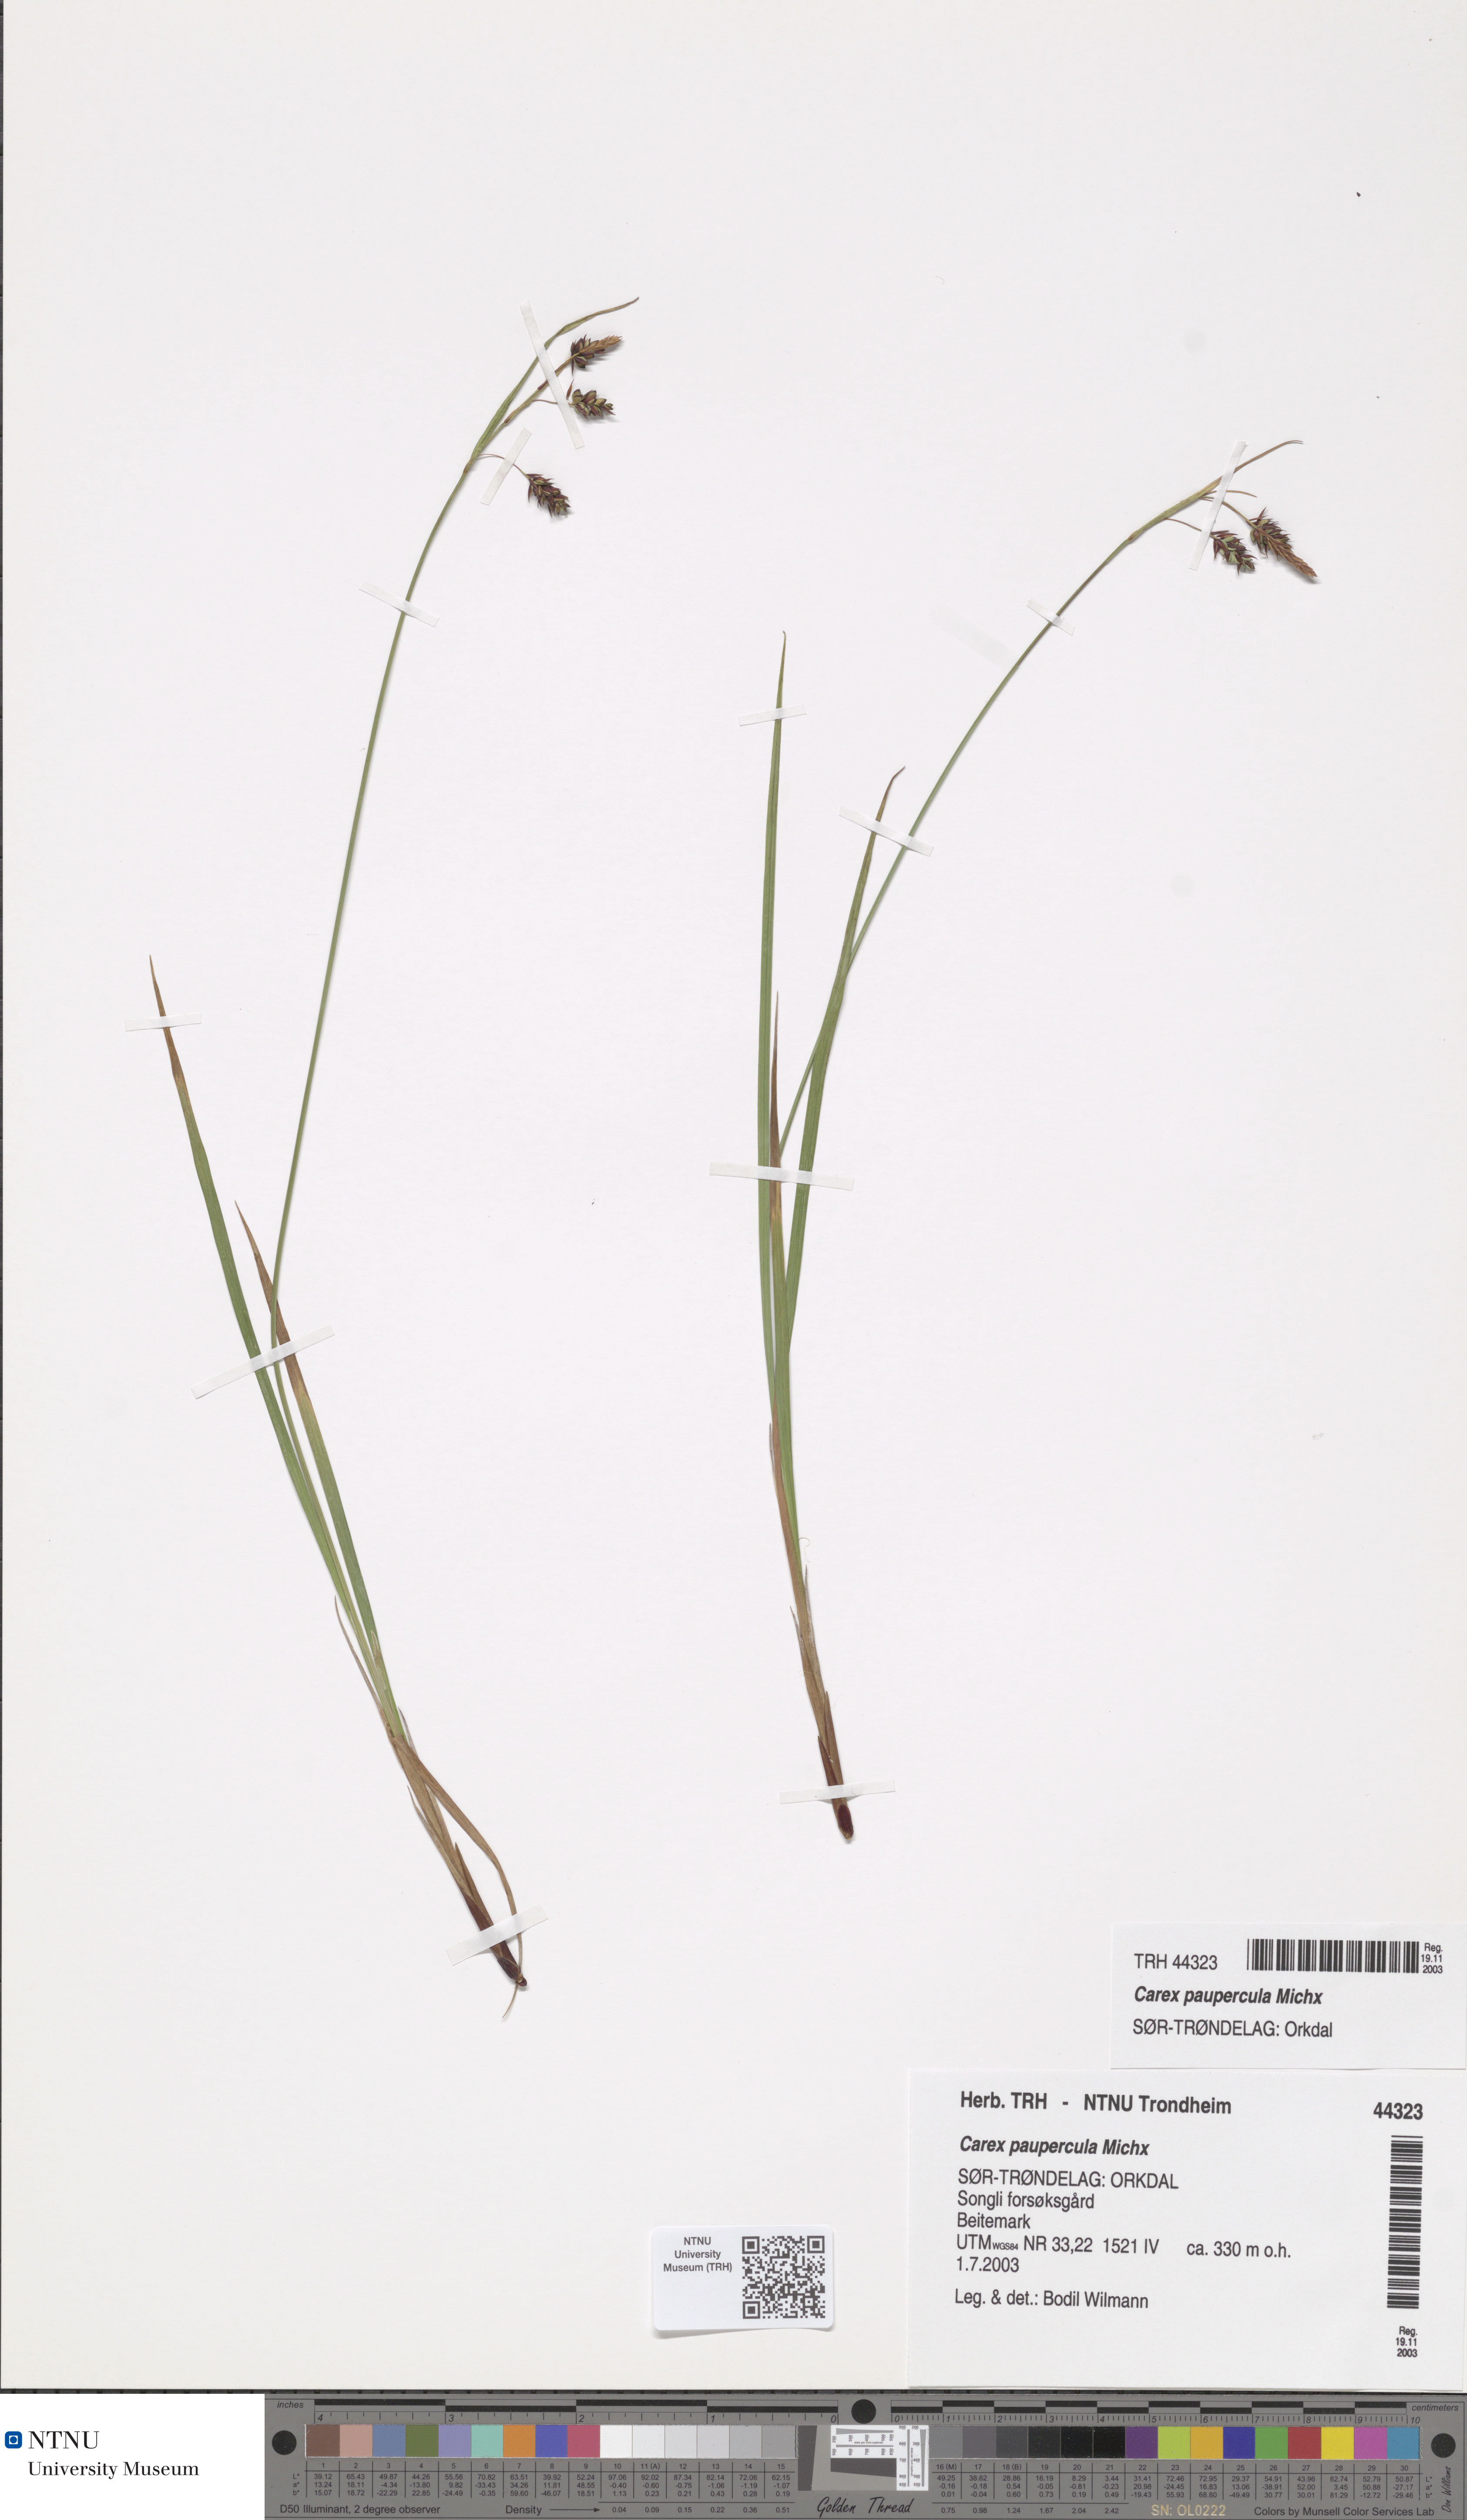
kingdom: Plantae
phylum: Tracheophyta
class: Liliopsida
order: Poales
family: Cyperaceae
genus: Carex
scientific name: Carex magellanica
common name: Bog sedge
